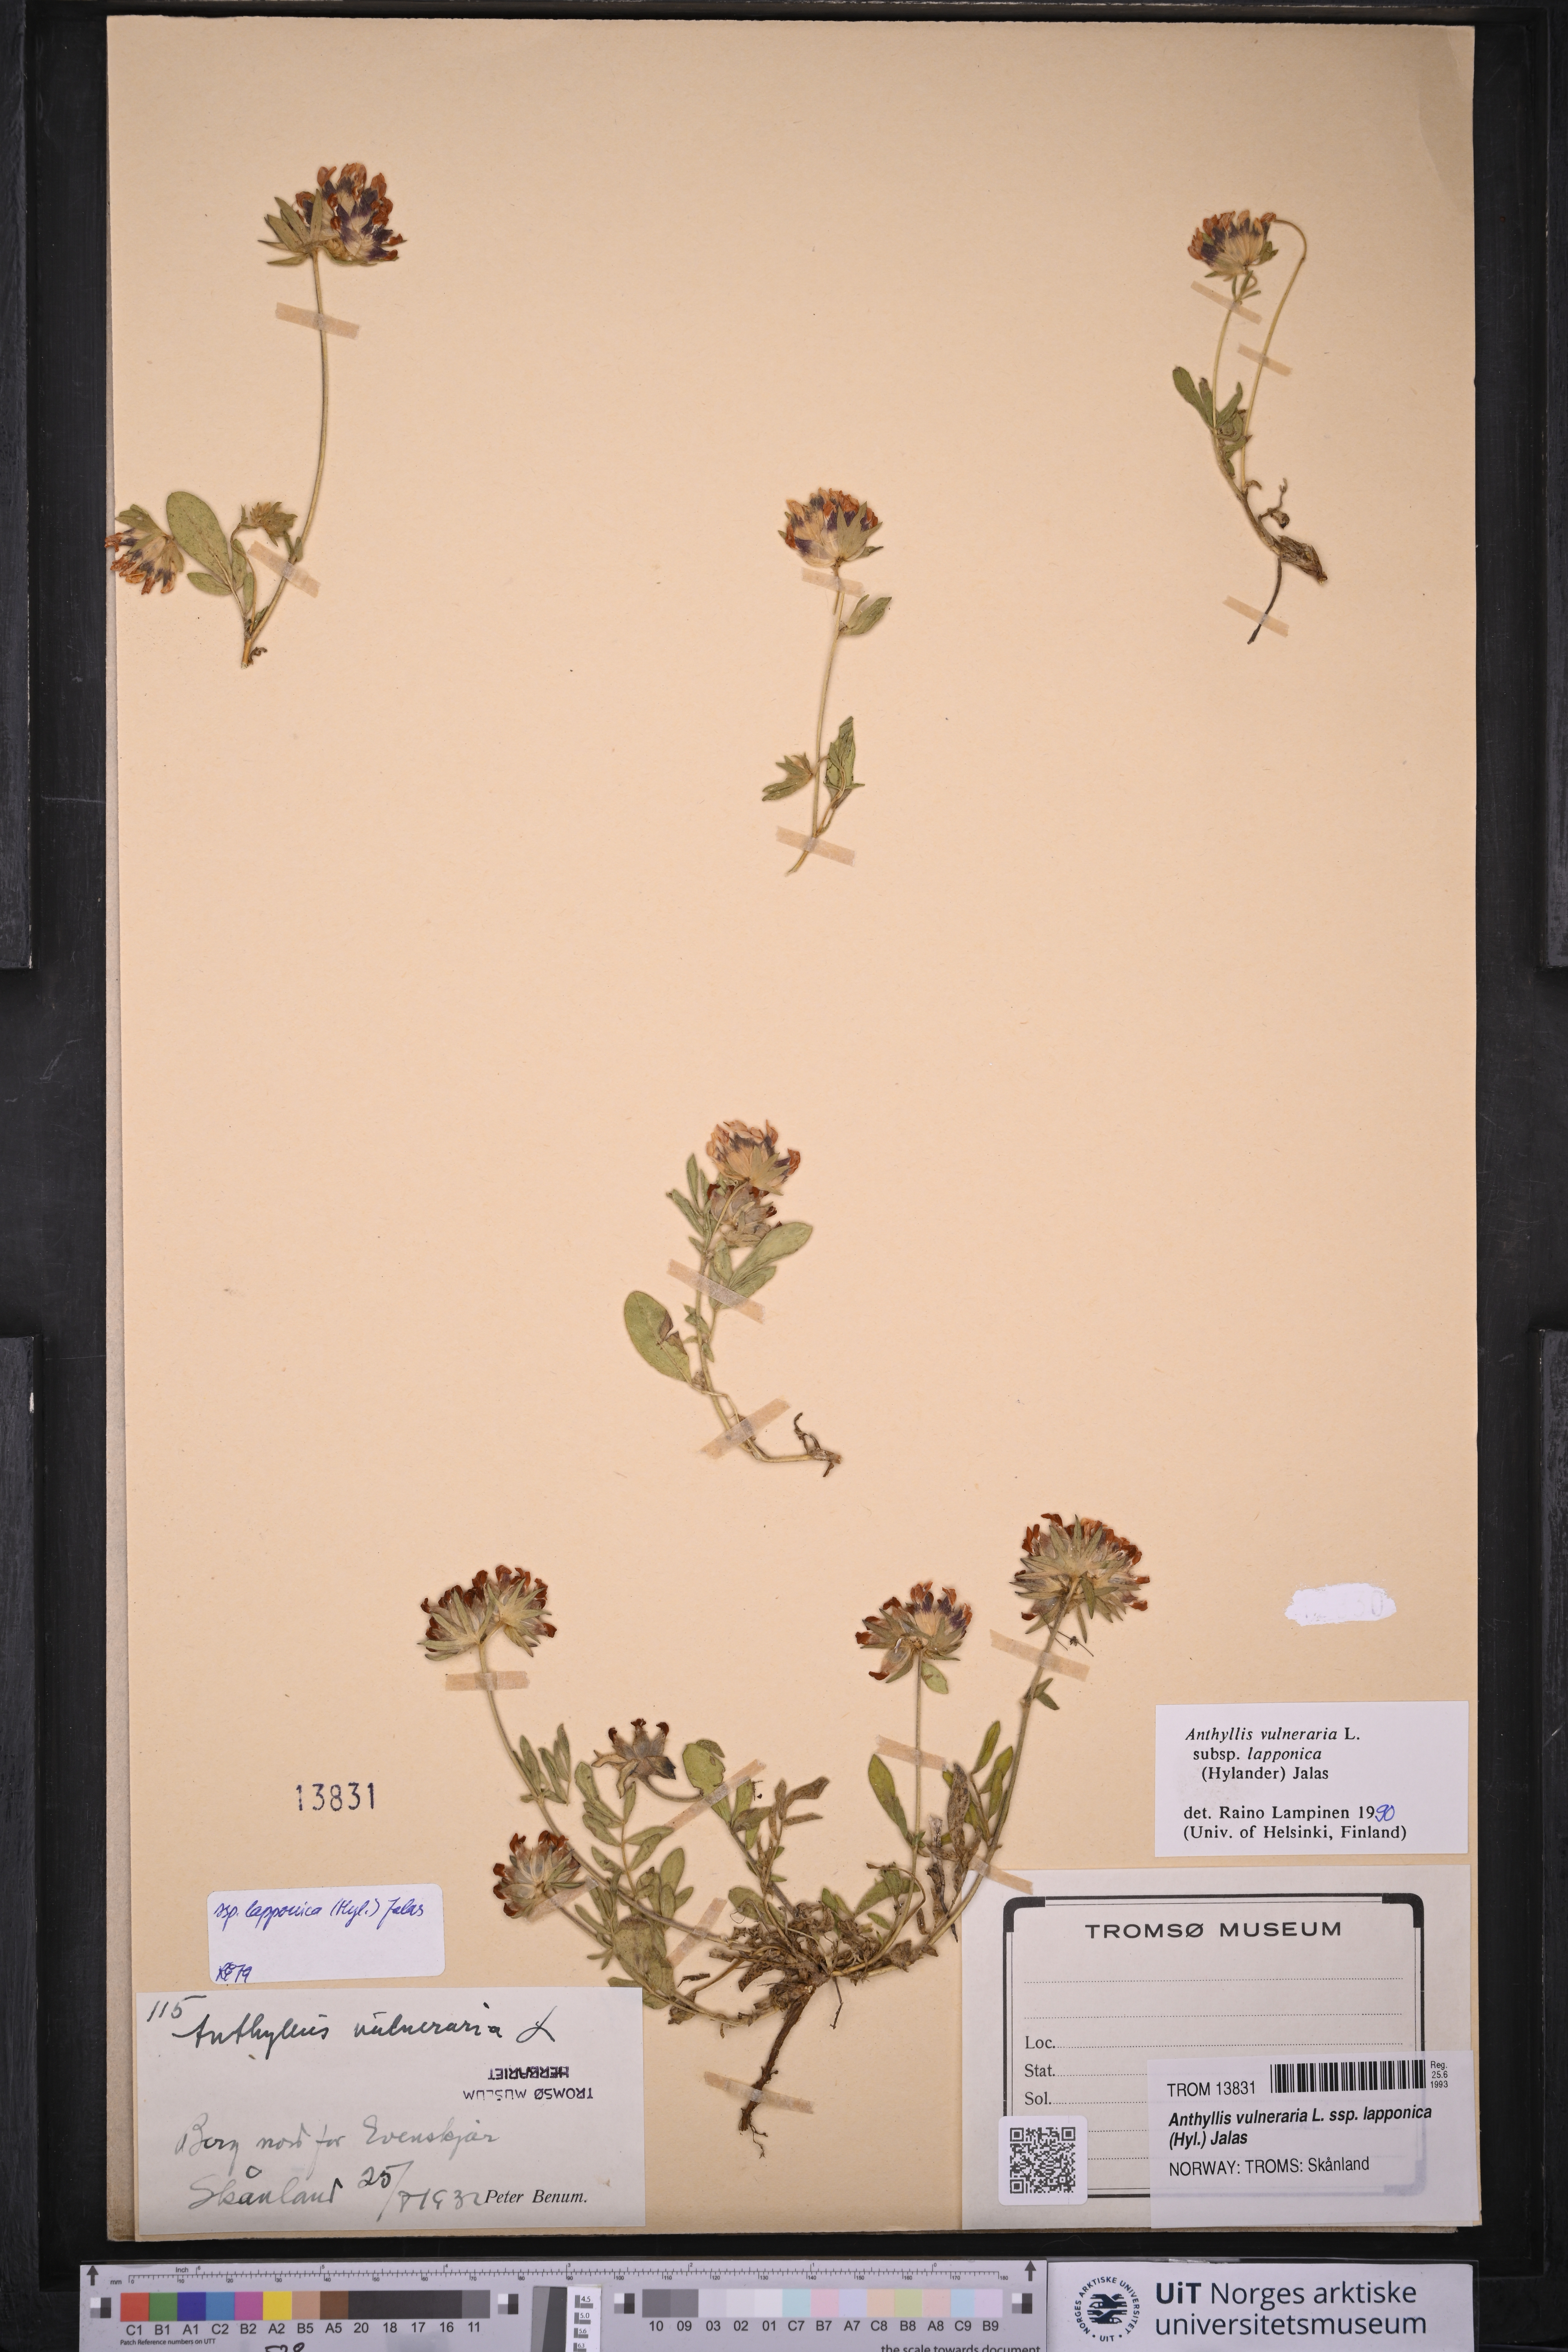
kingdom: Plantae
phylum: Tracheophyta
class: Magnoliopsida
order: Fabales
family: Fabaceae
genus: Anthyllis
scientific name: Anthyllis vulneraria
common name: Kidney vetch
